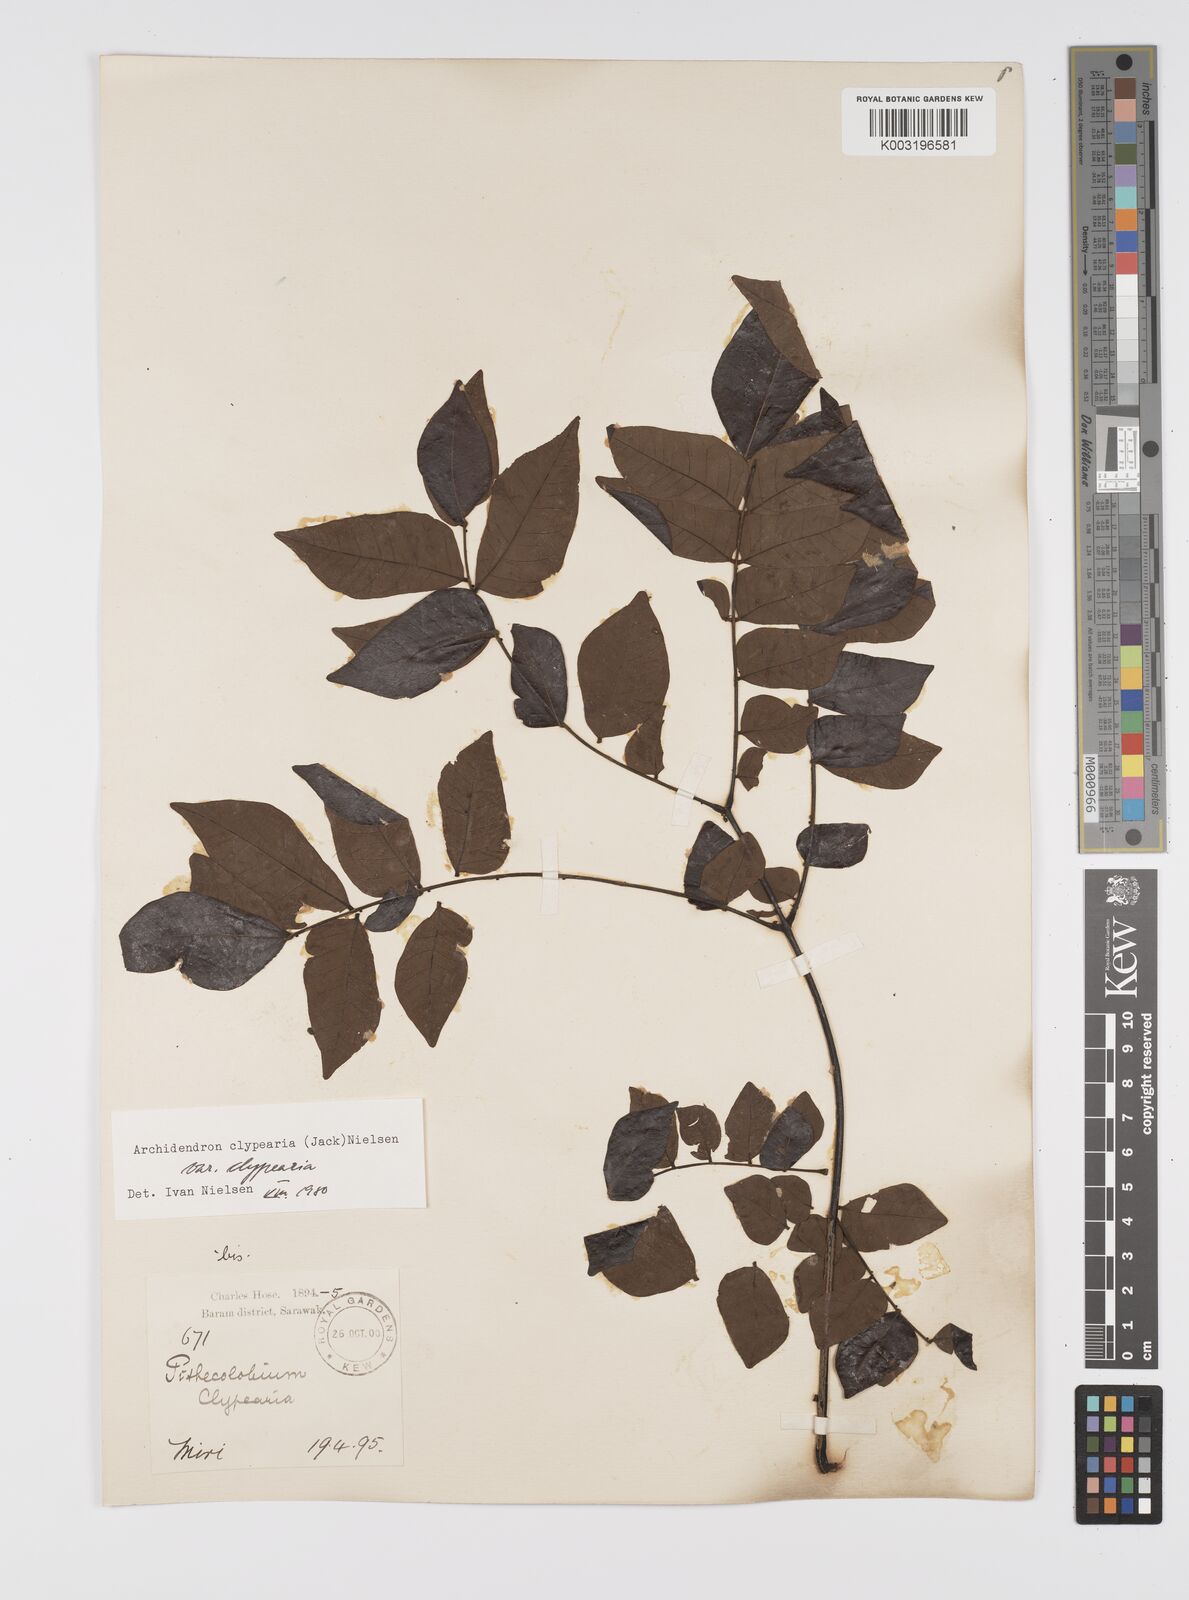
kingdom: Plantae
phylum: Tracheophyta
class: Magnoliopsida
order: Fabales
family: Fabaceae
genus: Archidendron
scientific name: Archidendron clypearia
